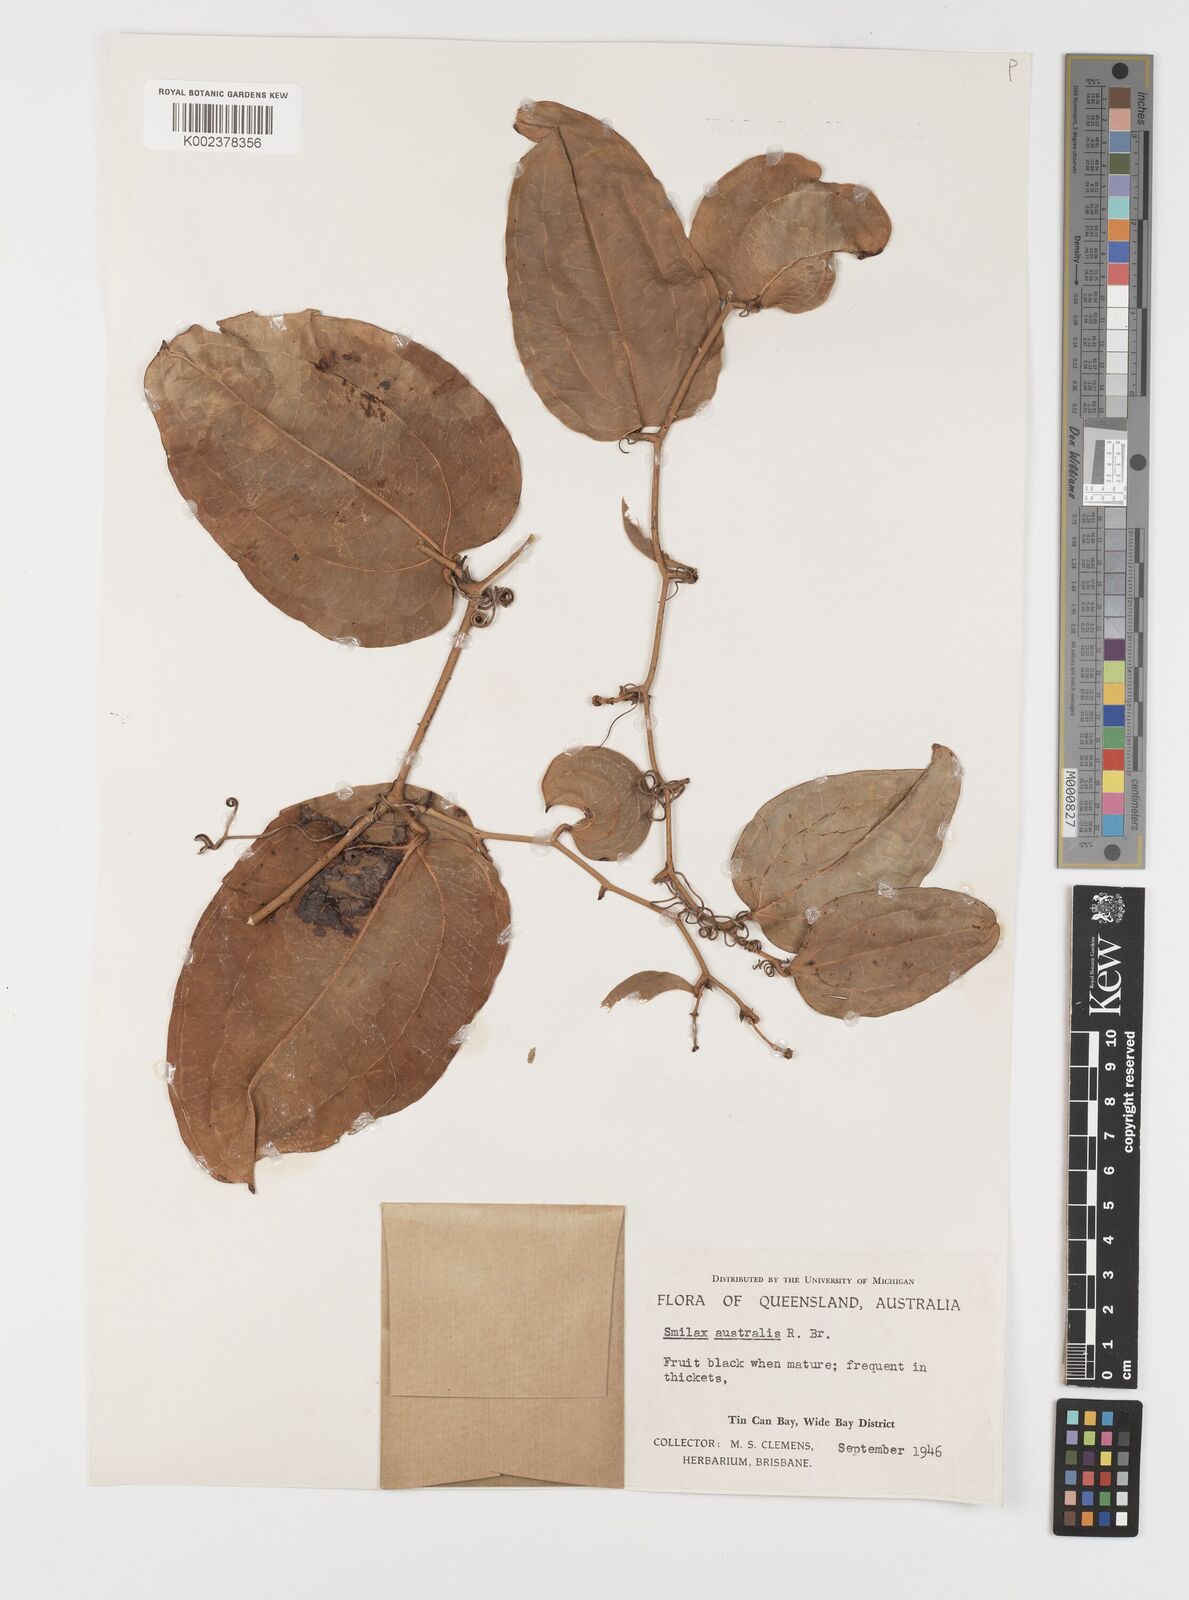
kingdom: Plantae
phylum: Tracheophyta
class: Liliopsida
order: Liliales
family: Smilacaceae
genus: Smilax
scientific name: Smilax australis
